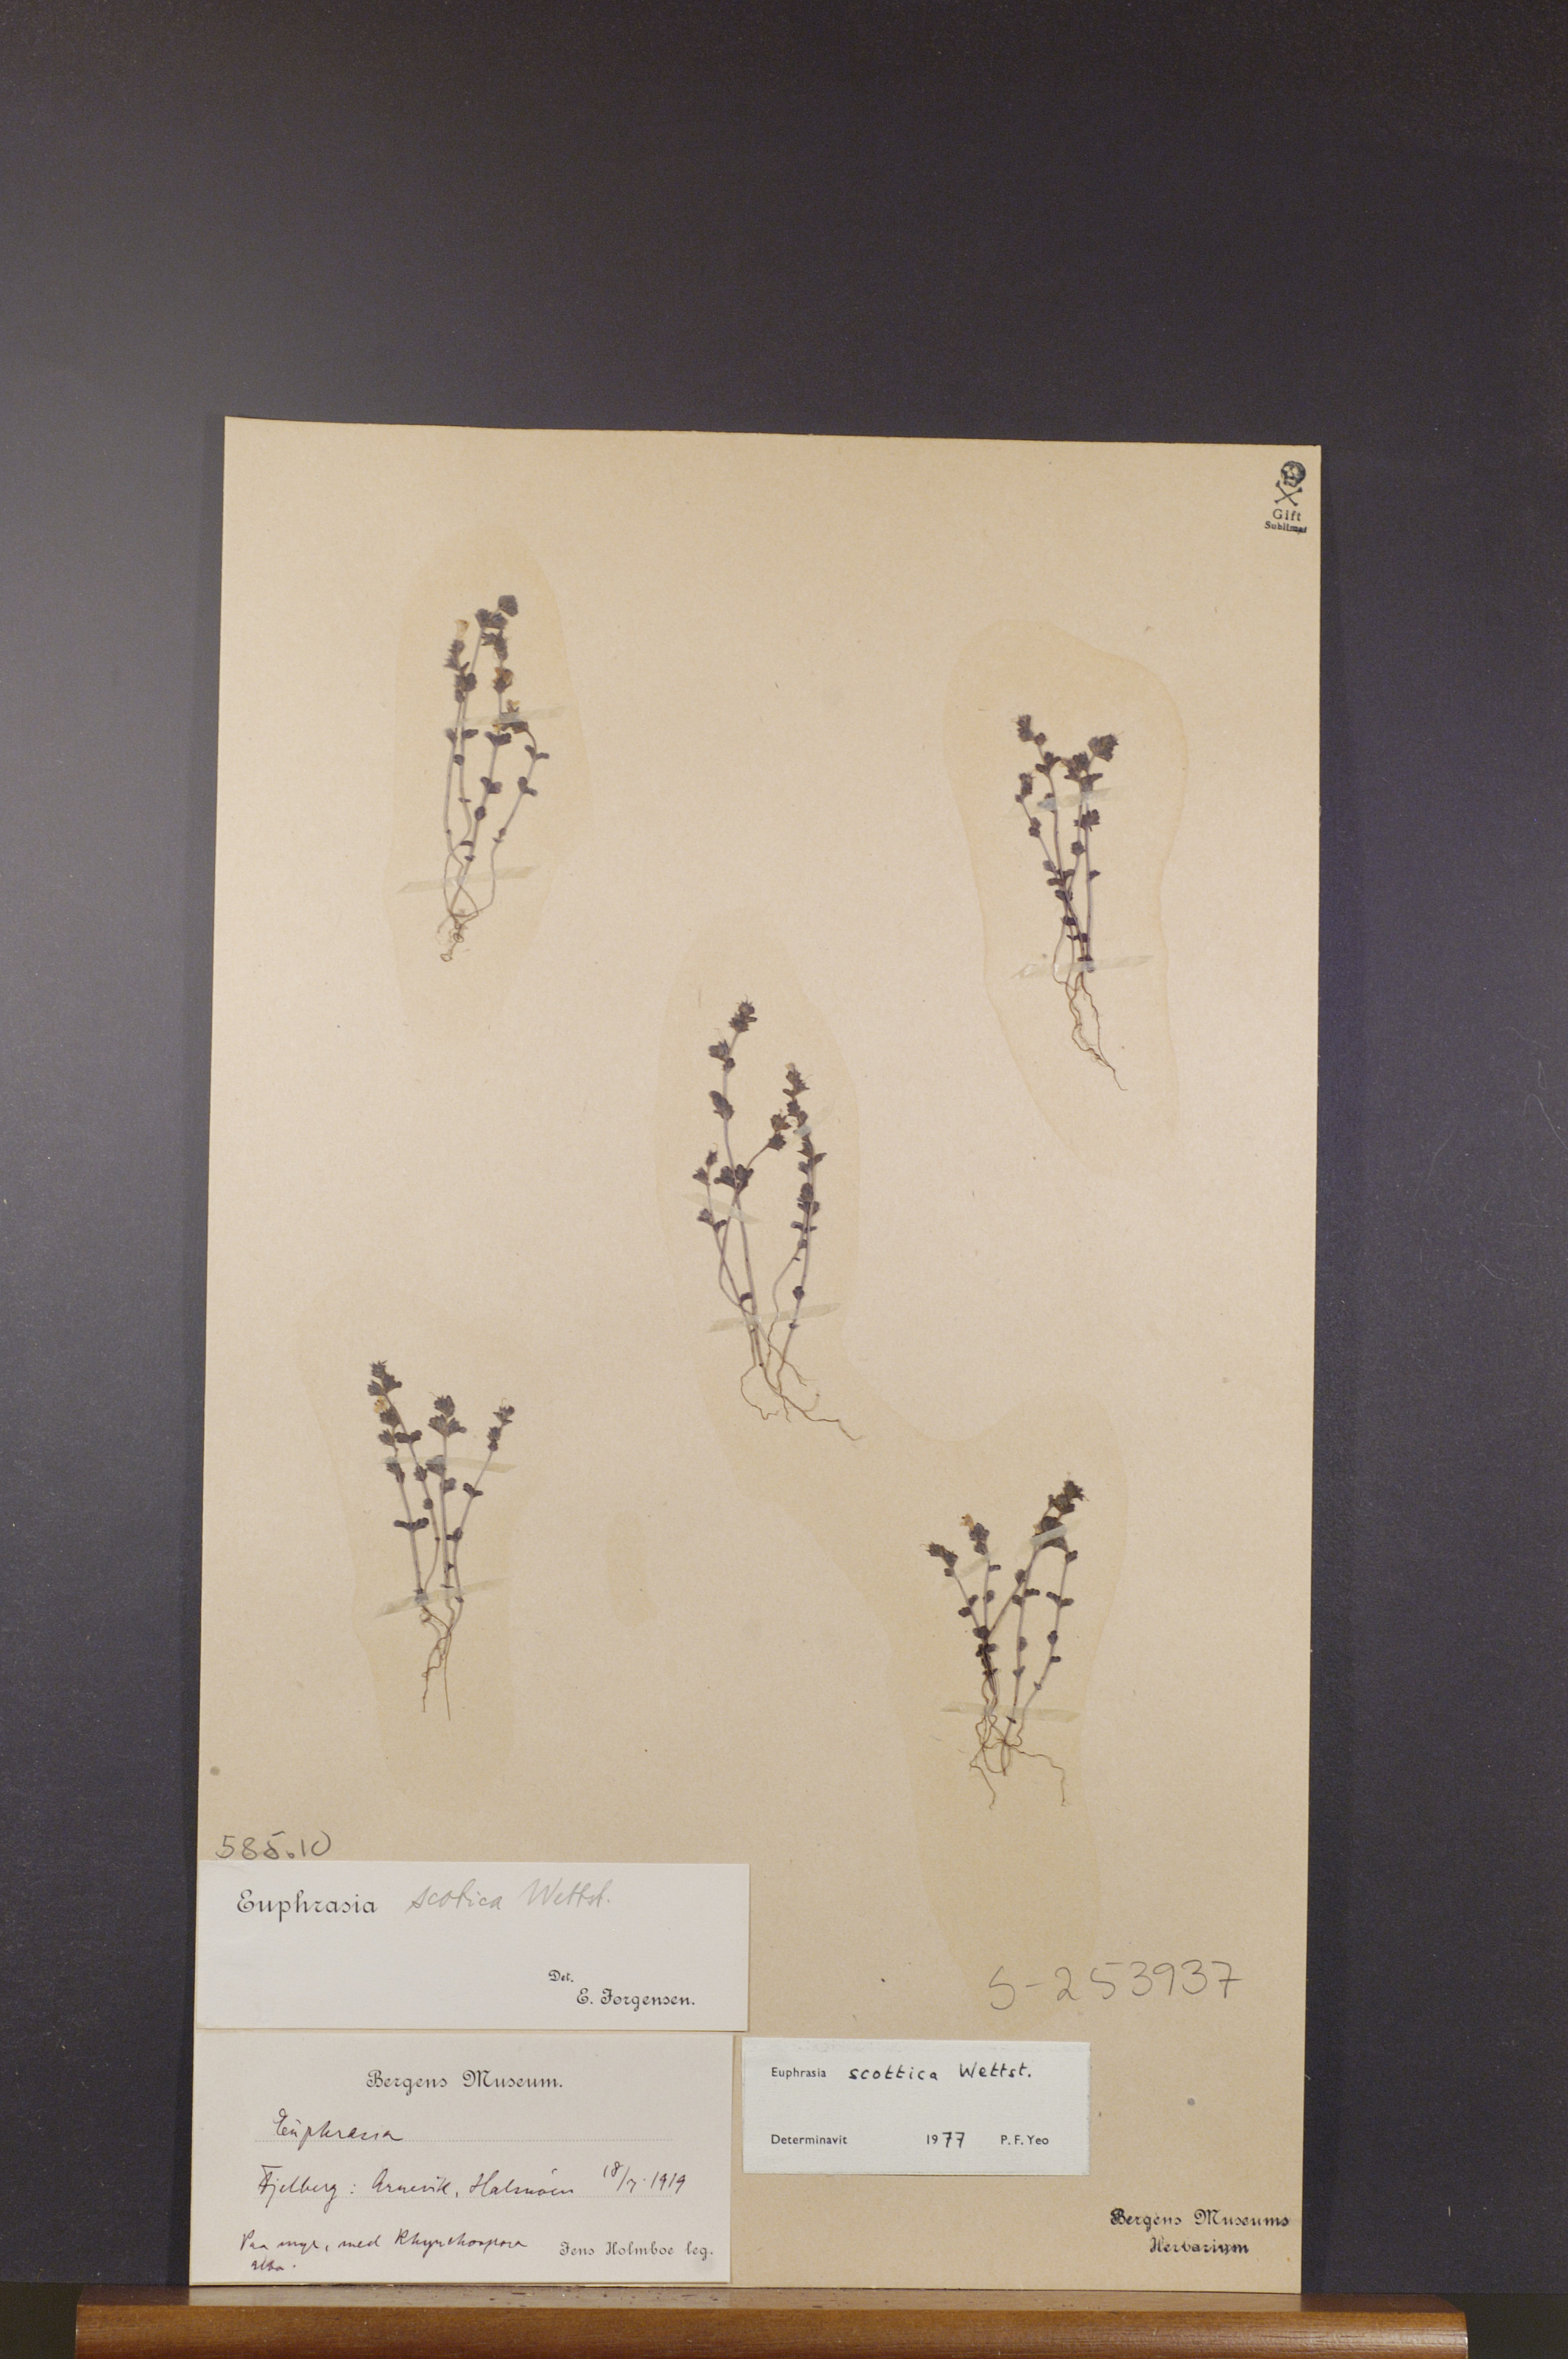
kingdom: Plantae
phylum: Tracheophyta
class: Magnoliopsida
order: Lamiales
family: Orobanchaceae
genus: Euphrasia
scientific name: Euphrasia scottica
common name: Slender scottish eyebright
